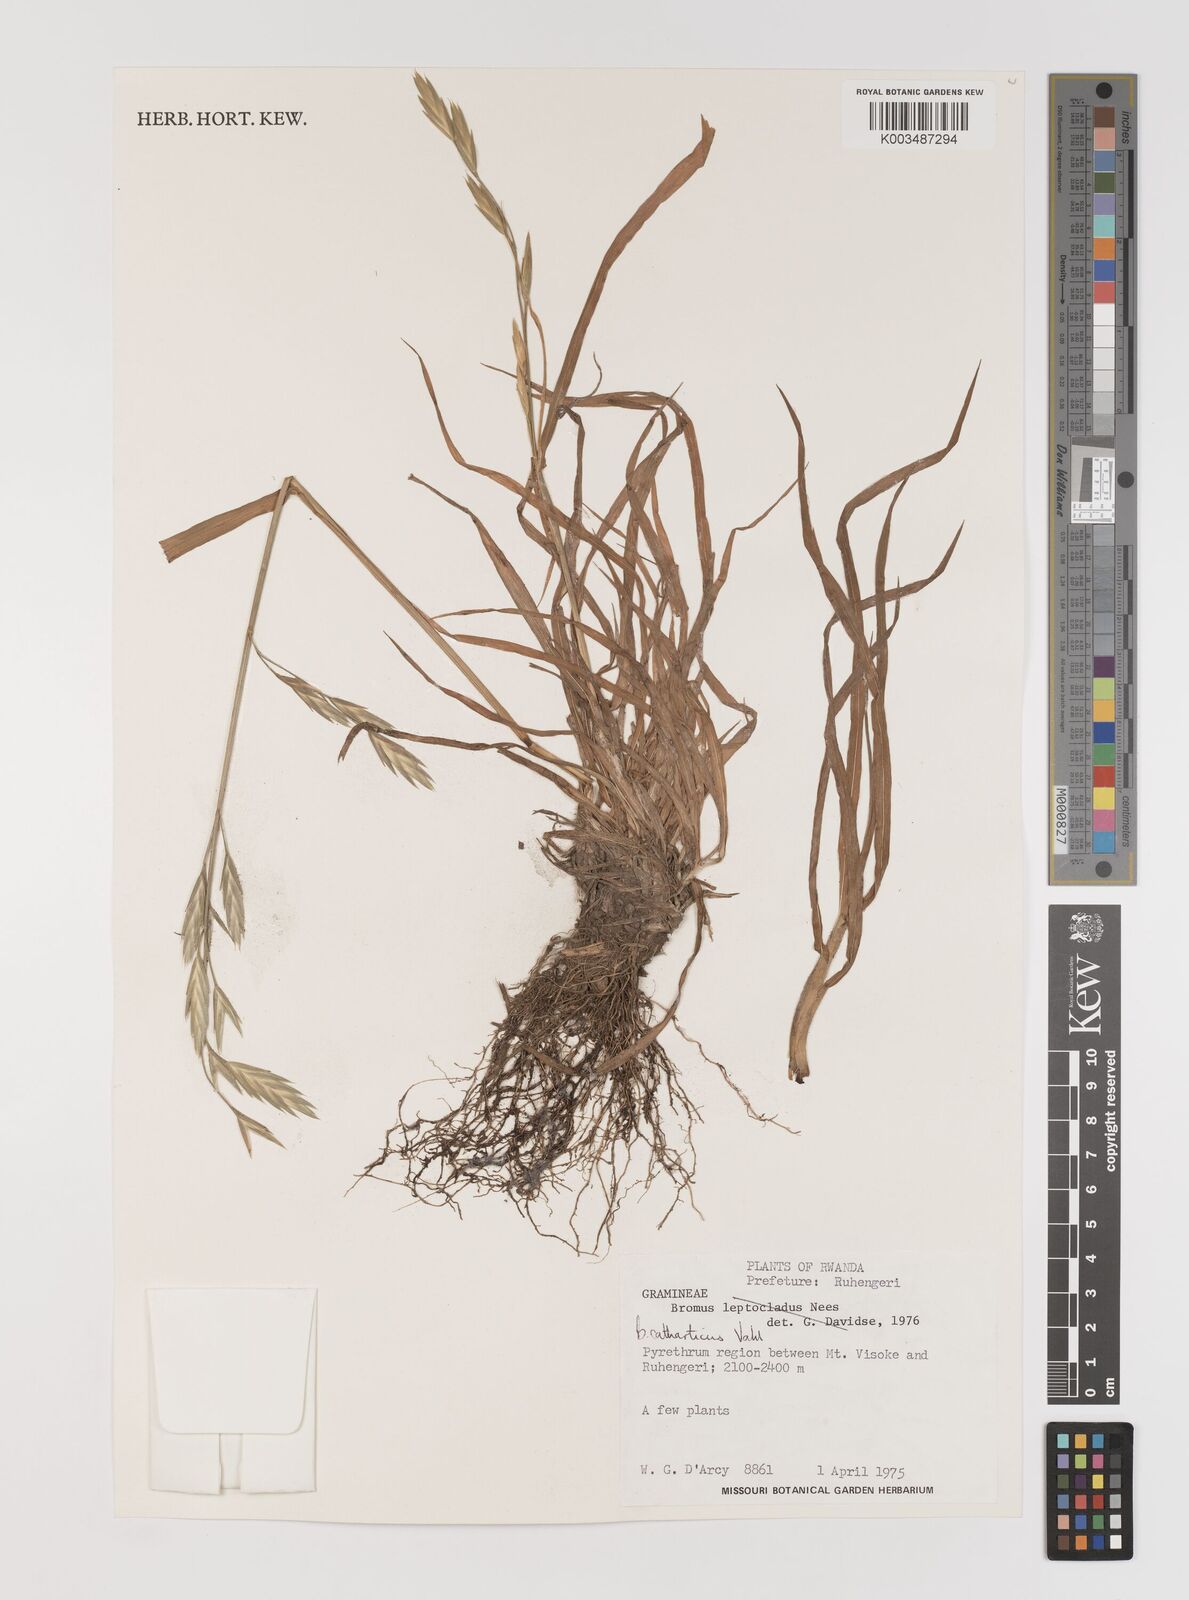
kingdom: Plantae
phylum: Tracheophyta
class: Liliopsida
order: Poales
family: Poaceae
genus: Bromus
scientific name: Bromus catharticus
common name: Rescuegrass
